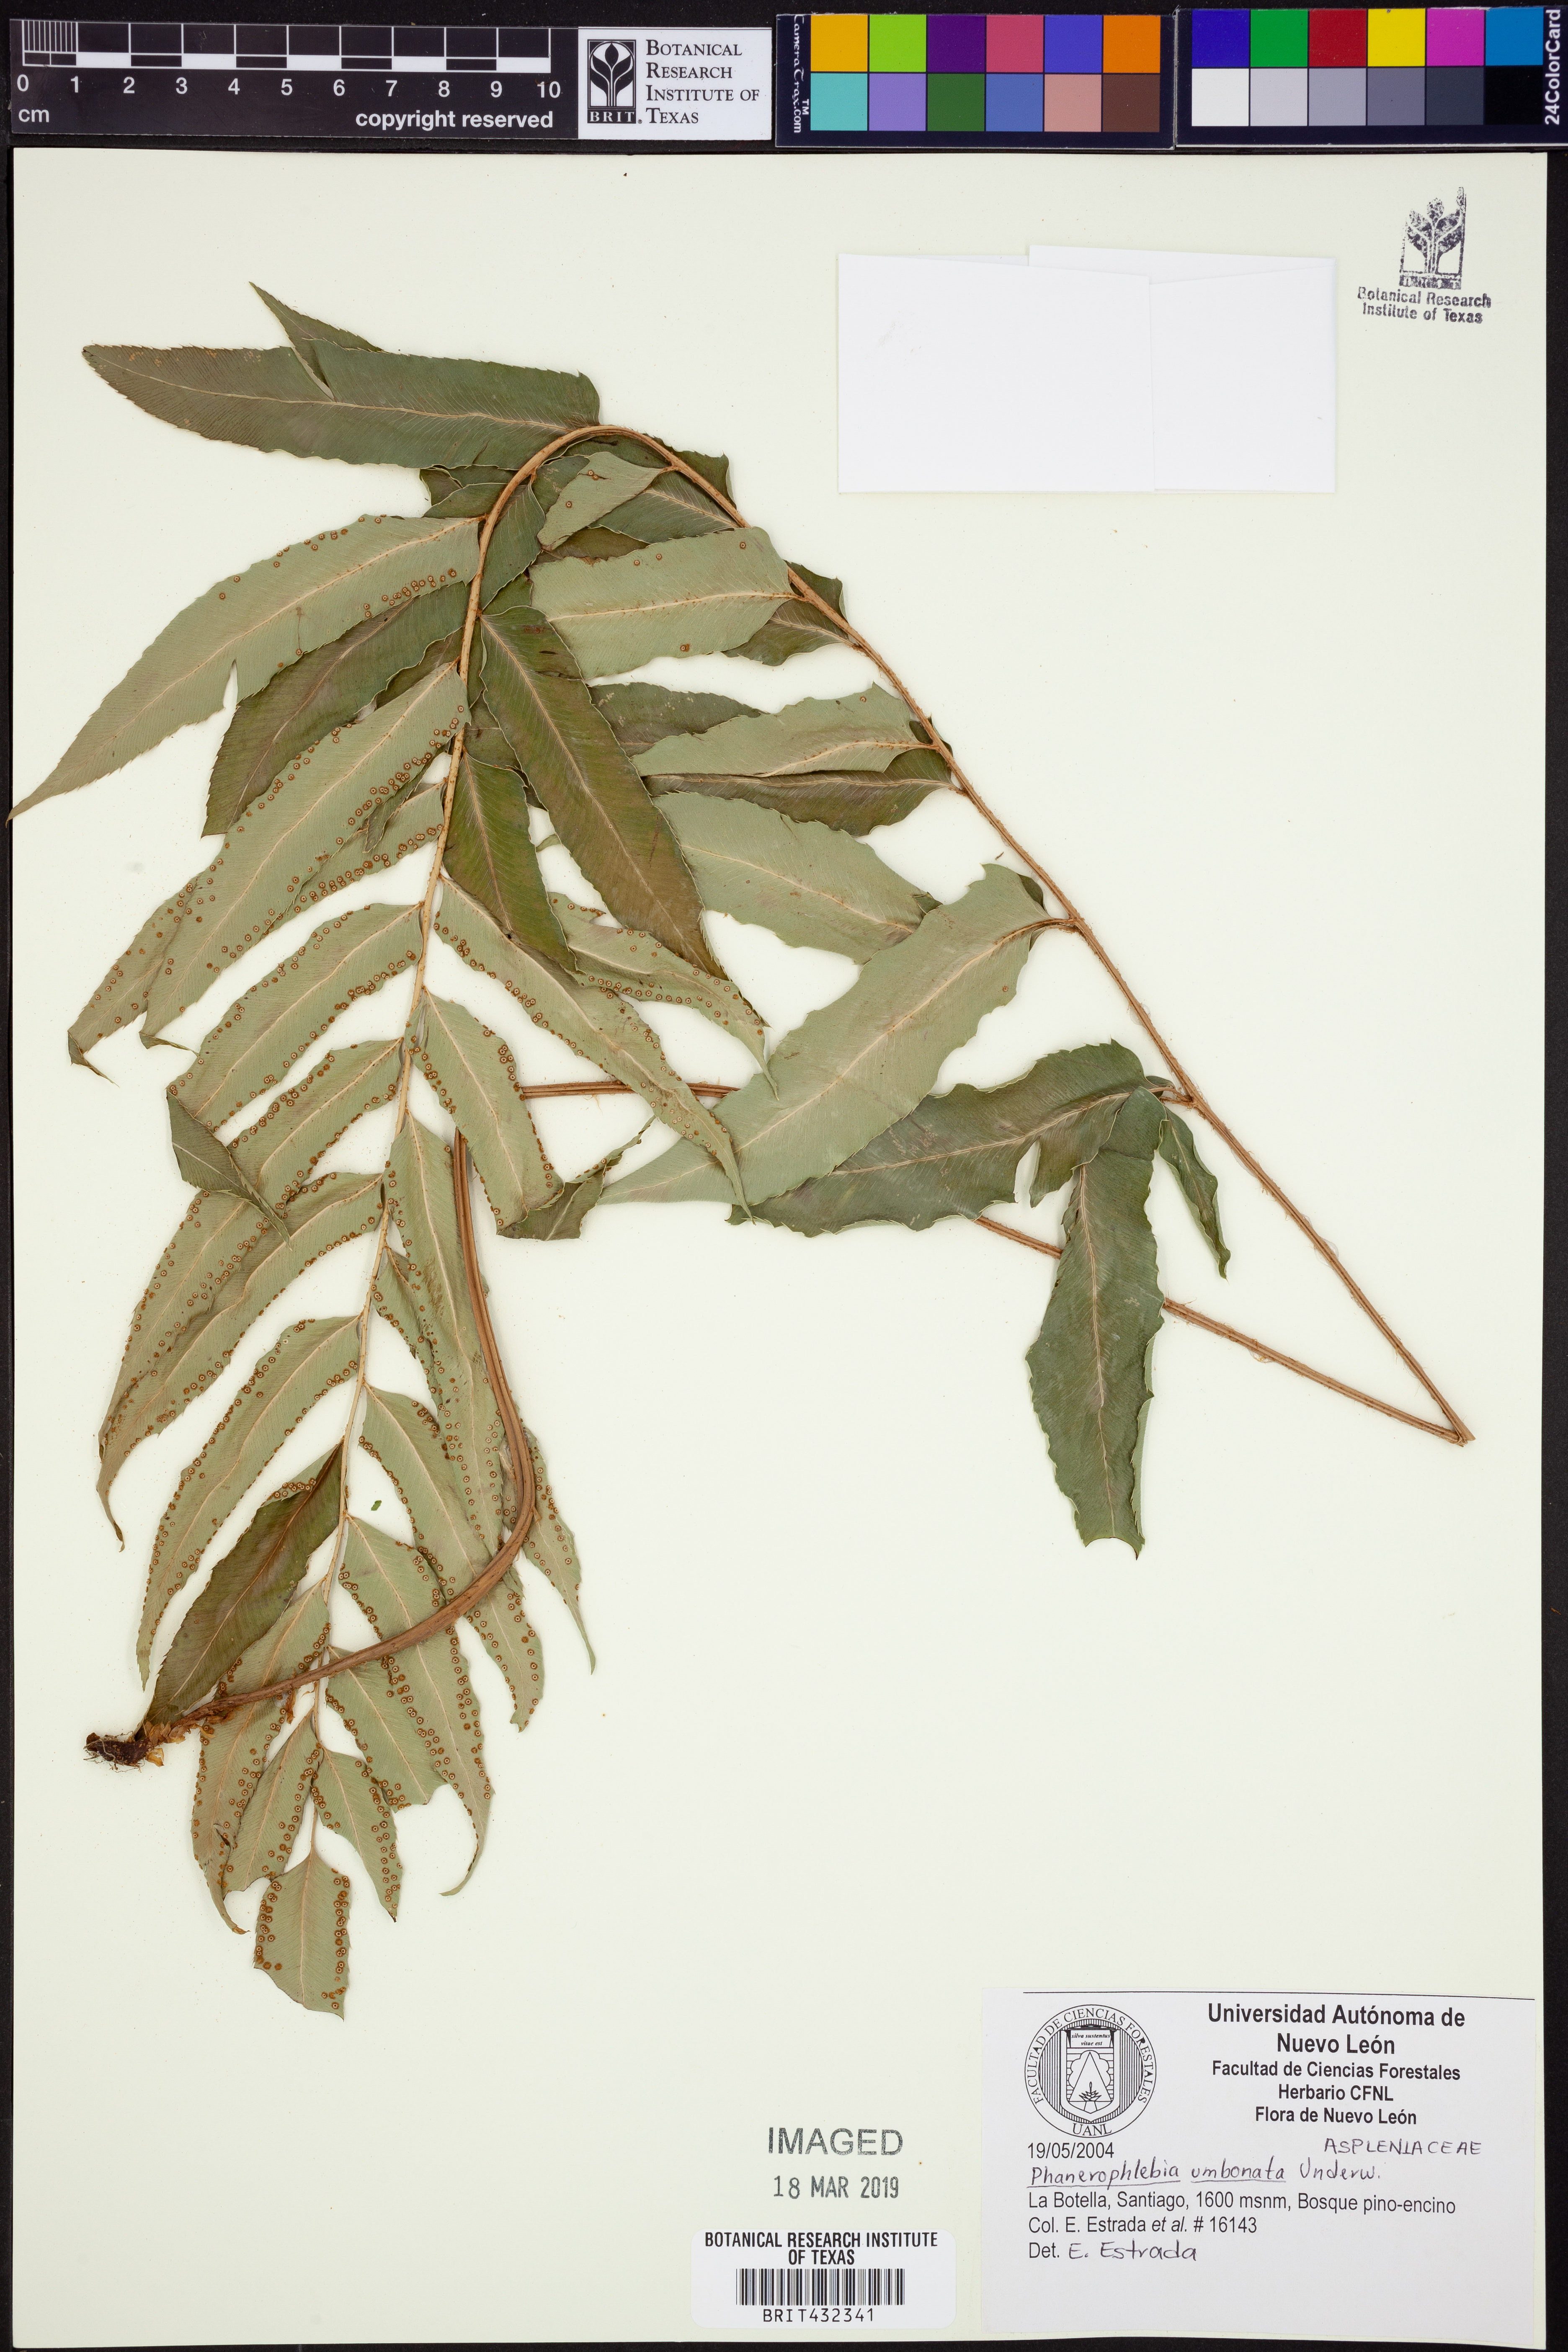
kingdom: Plantae
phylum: Tracheophyta
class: Polypodiopsida
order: Polypodiales
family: Dryopteridaceae
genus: Phanerophlebia
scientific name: Phanerophlebia umbonata
